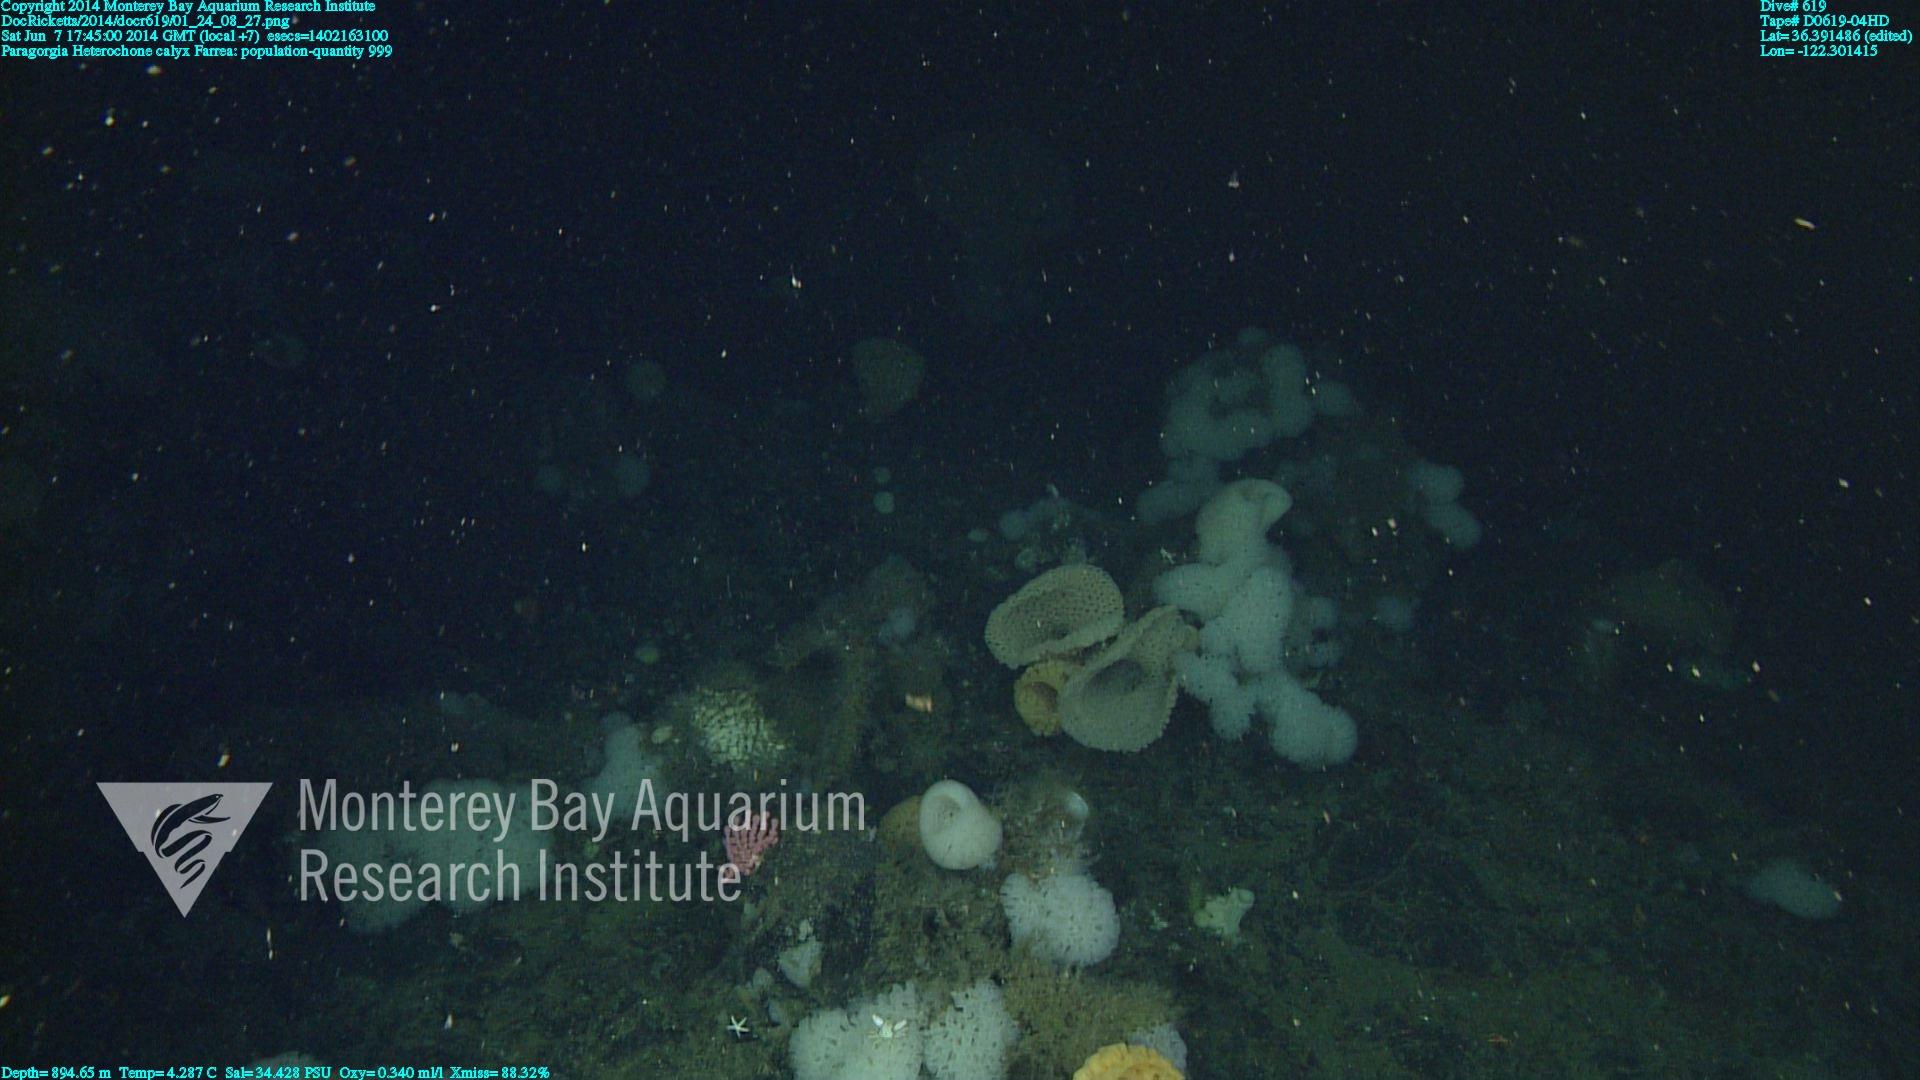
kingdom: Animalia
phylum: Cnidaria
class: Anthozoa
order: Scleralcyonacea
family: Coralliidae
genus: Paragorgia
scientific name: Paragorgia
